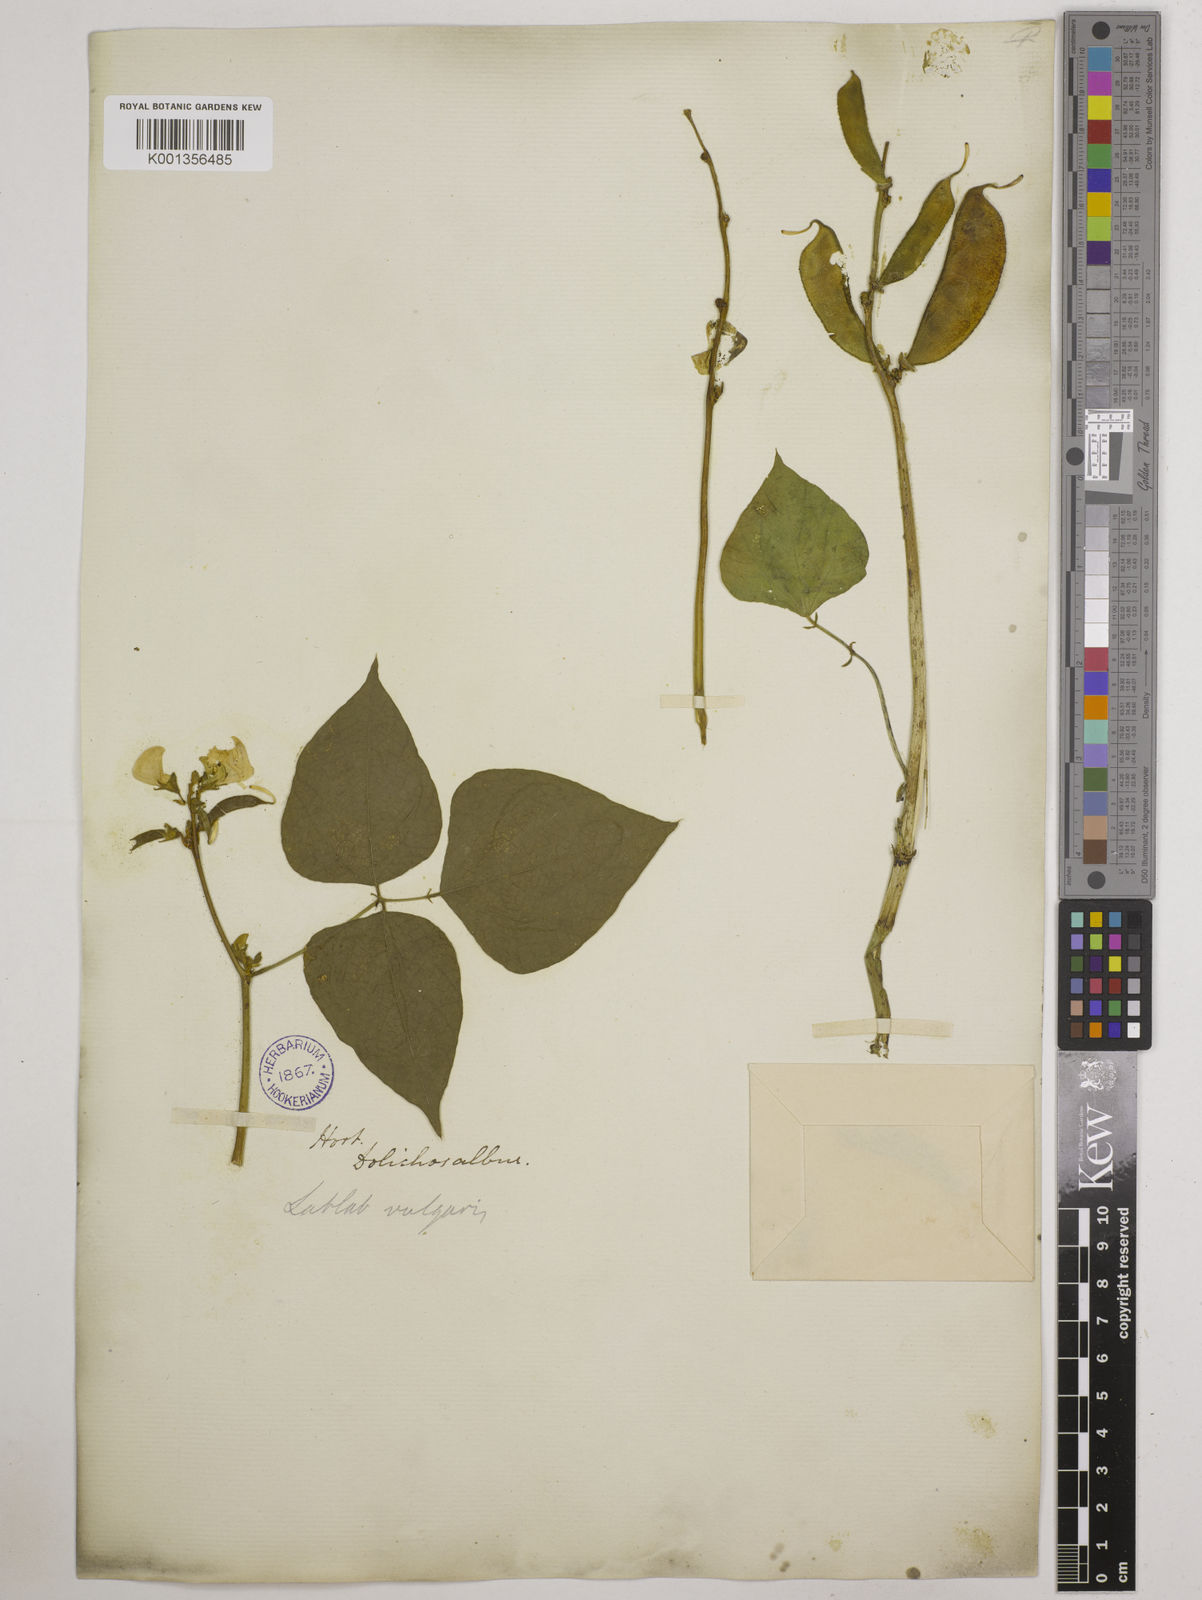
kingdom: Plantae
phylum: Tracheophyta
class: Magnoliopsida
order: Fabales
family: Fabaceae
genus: Lablab
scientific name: Lablab purpureus
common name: Lablab-bean
